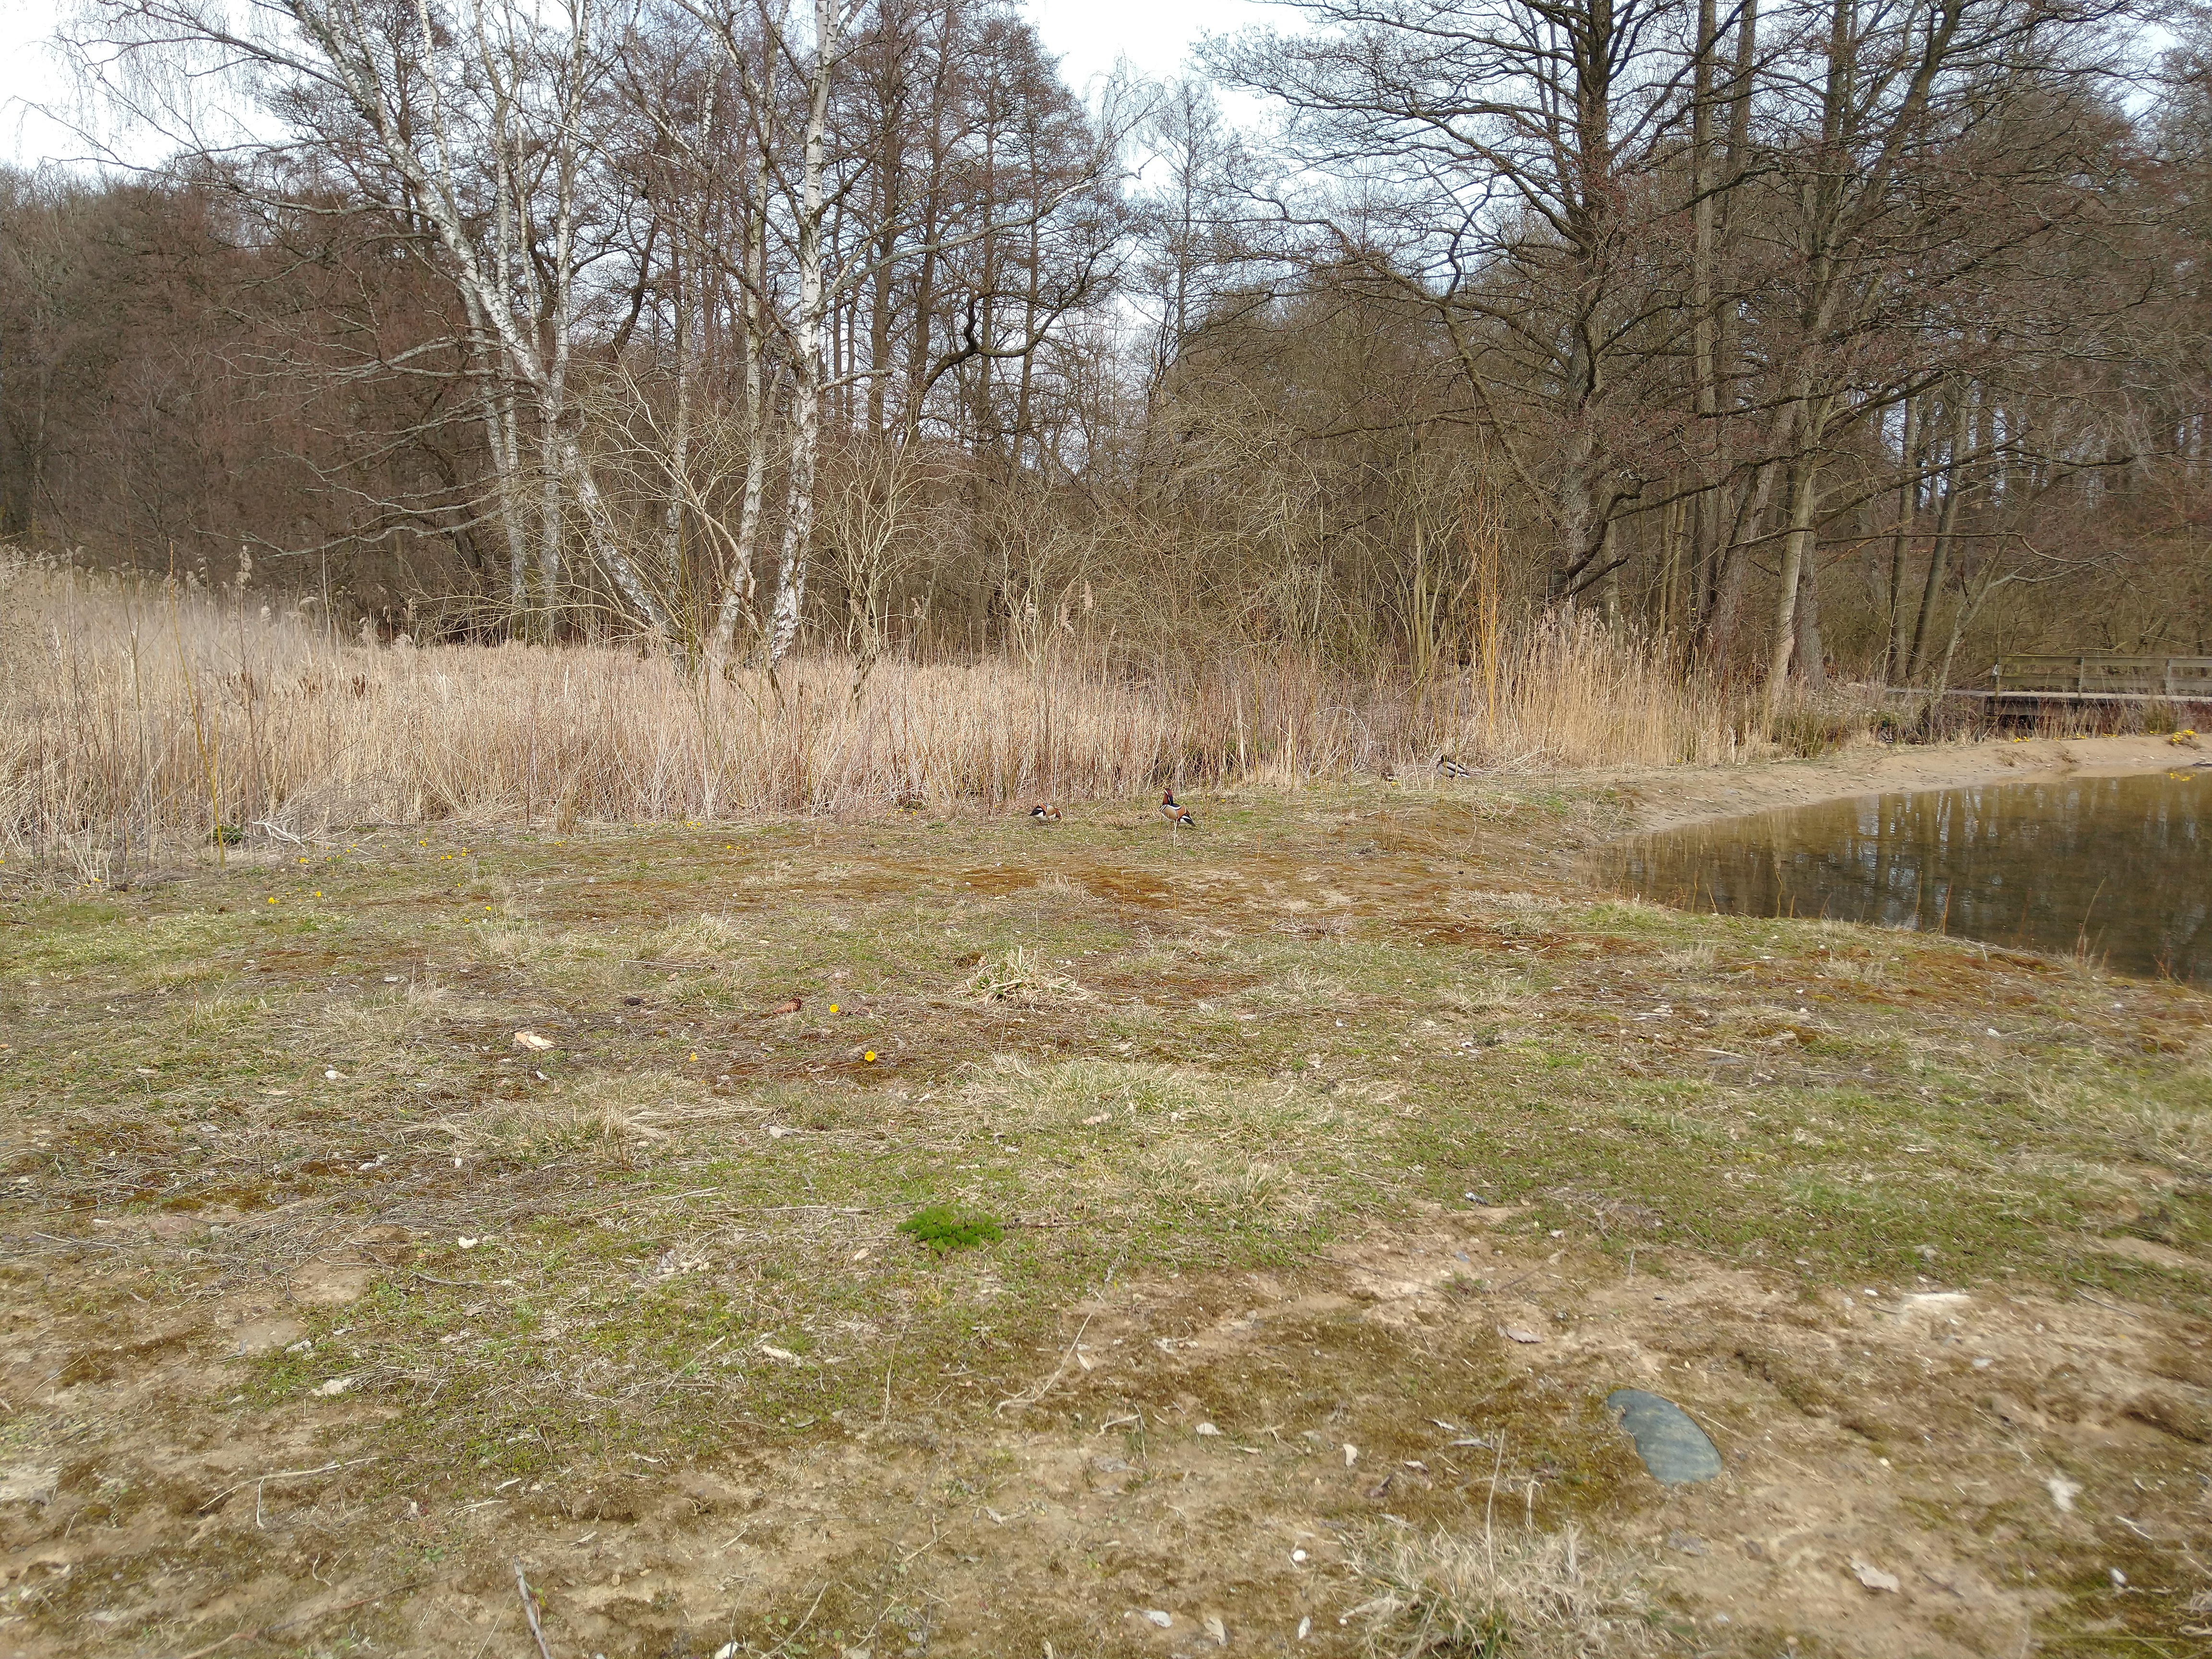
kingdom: Animalia
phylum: Chordata
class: Aves
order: Anseriformes
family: Anatidae
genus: Aix
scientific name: Aix galericulata
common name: Mandarinand
